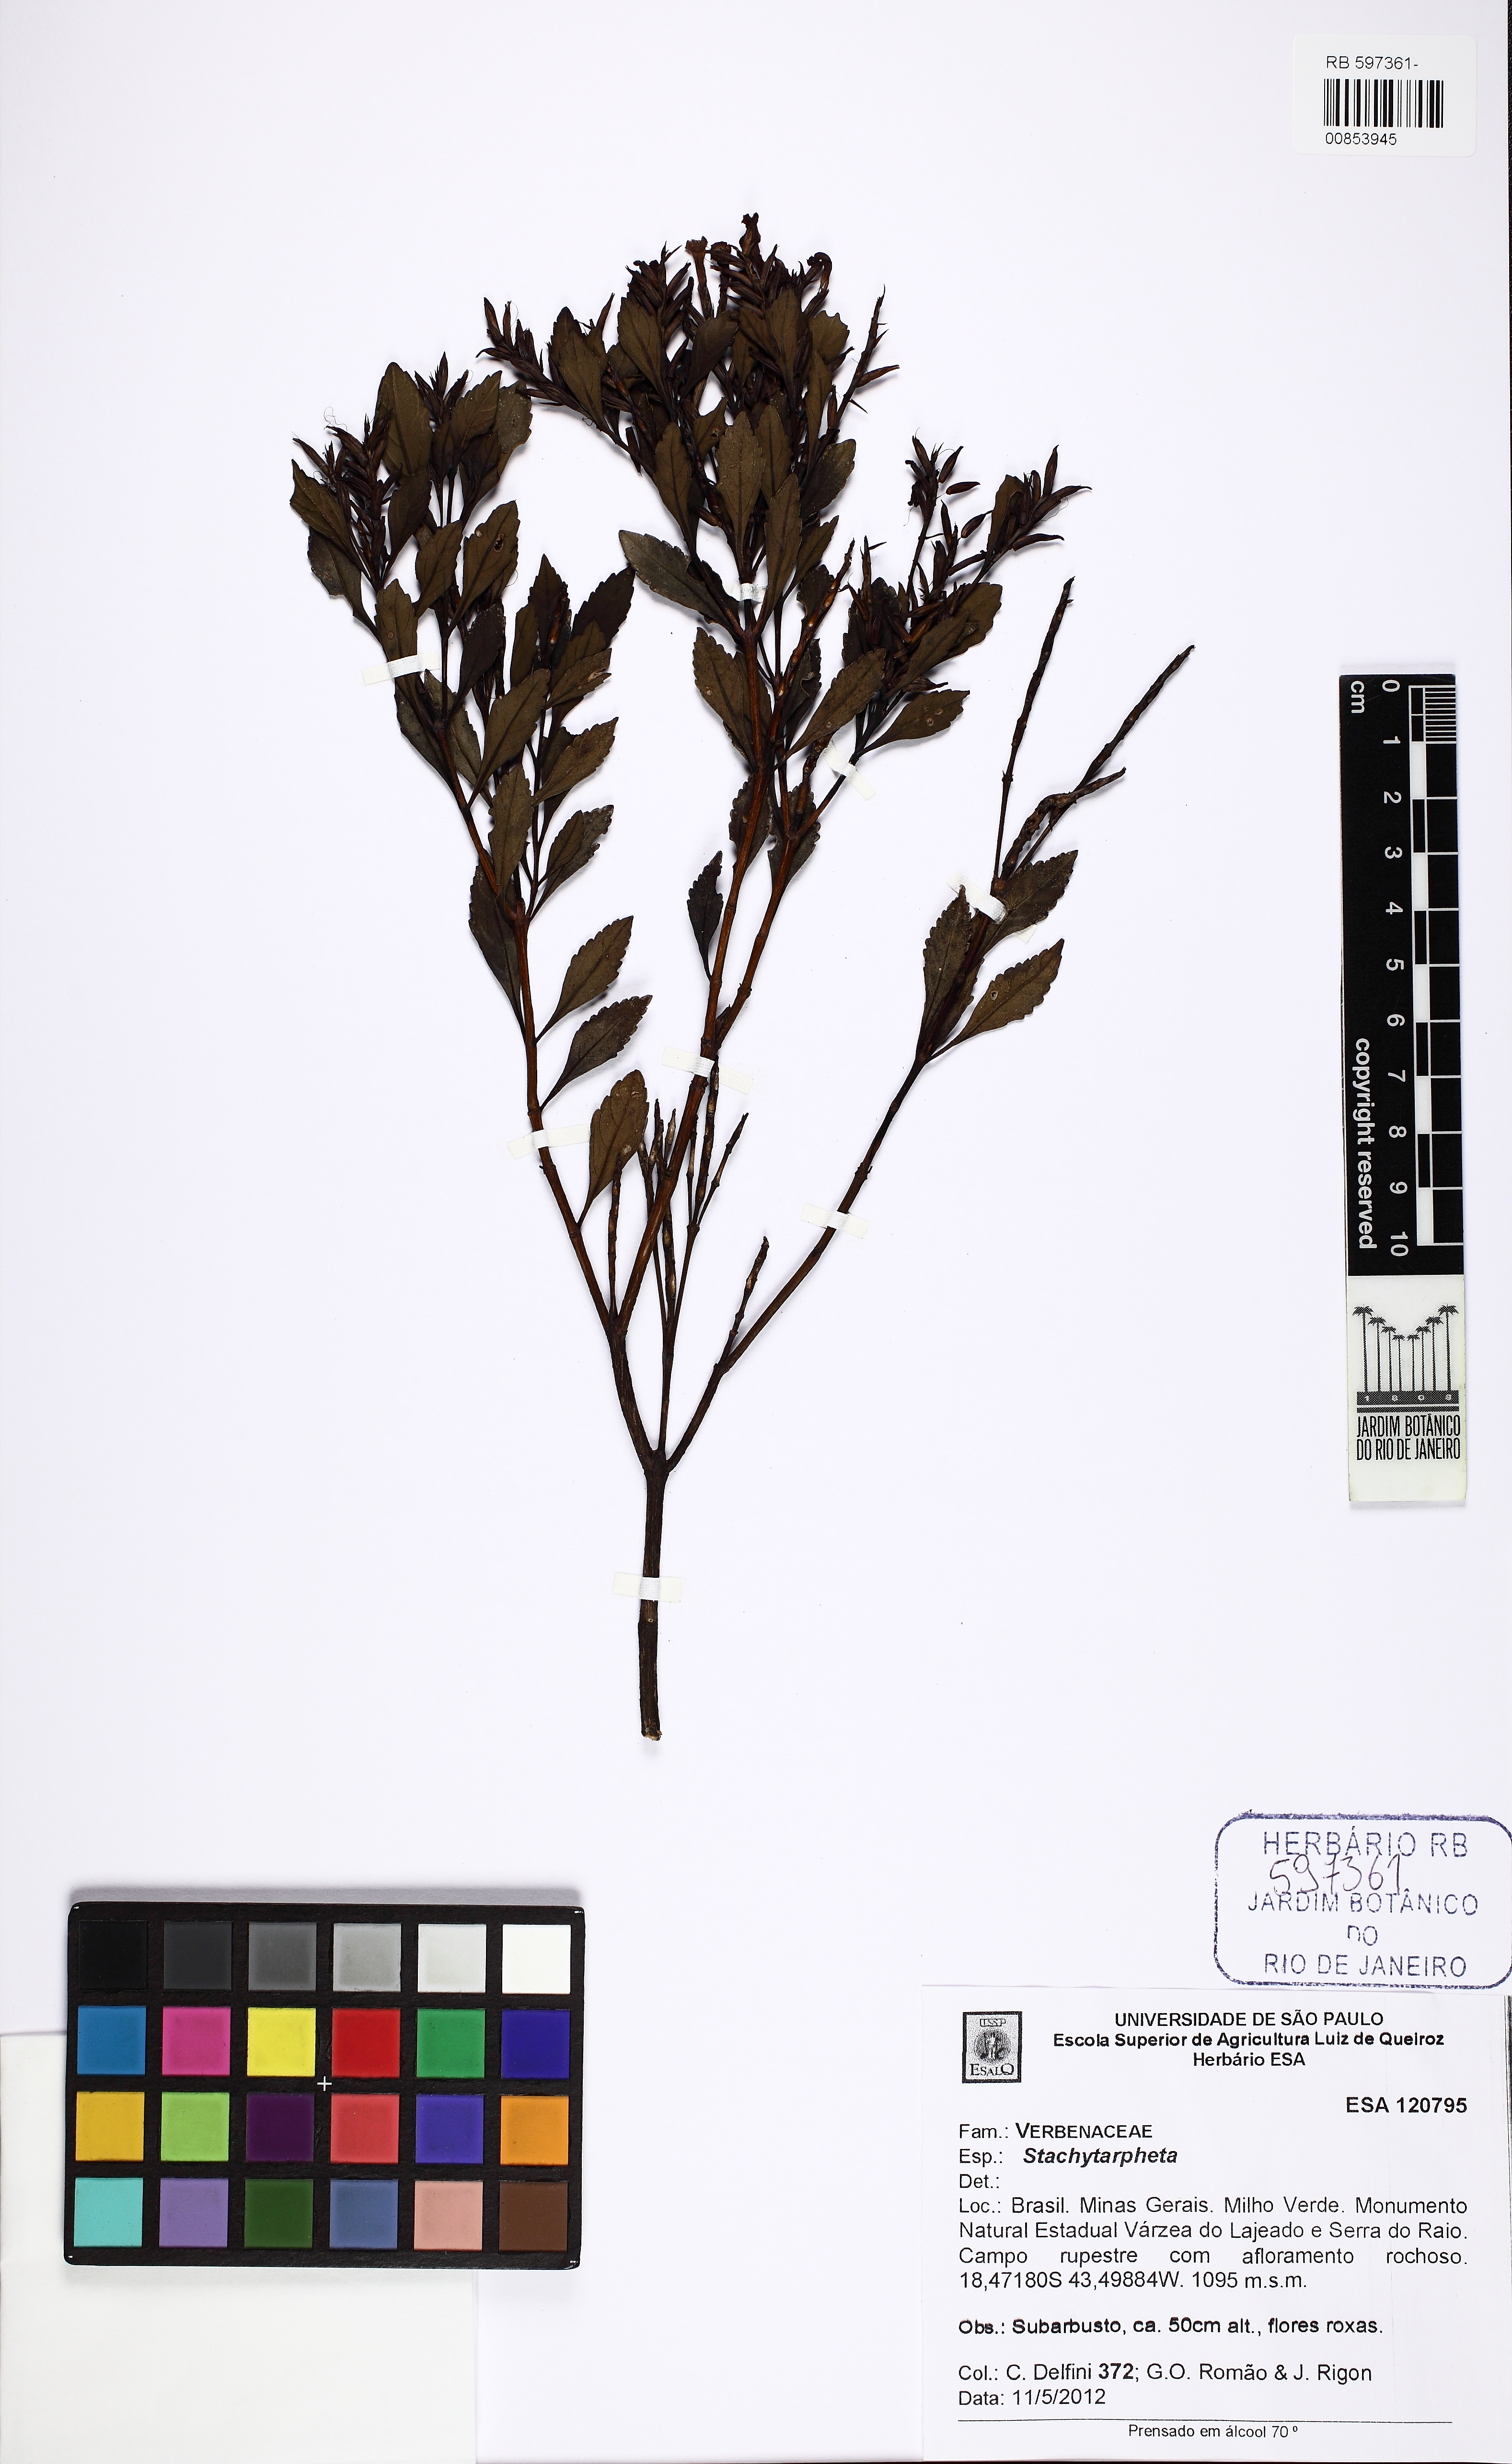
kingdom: Plantae
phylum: Tracheophyta
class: Magnoliopsida
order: Lamiales
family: Verbenaceae
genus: Stachytarpheta
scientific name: Stachytarpheta harleyi
